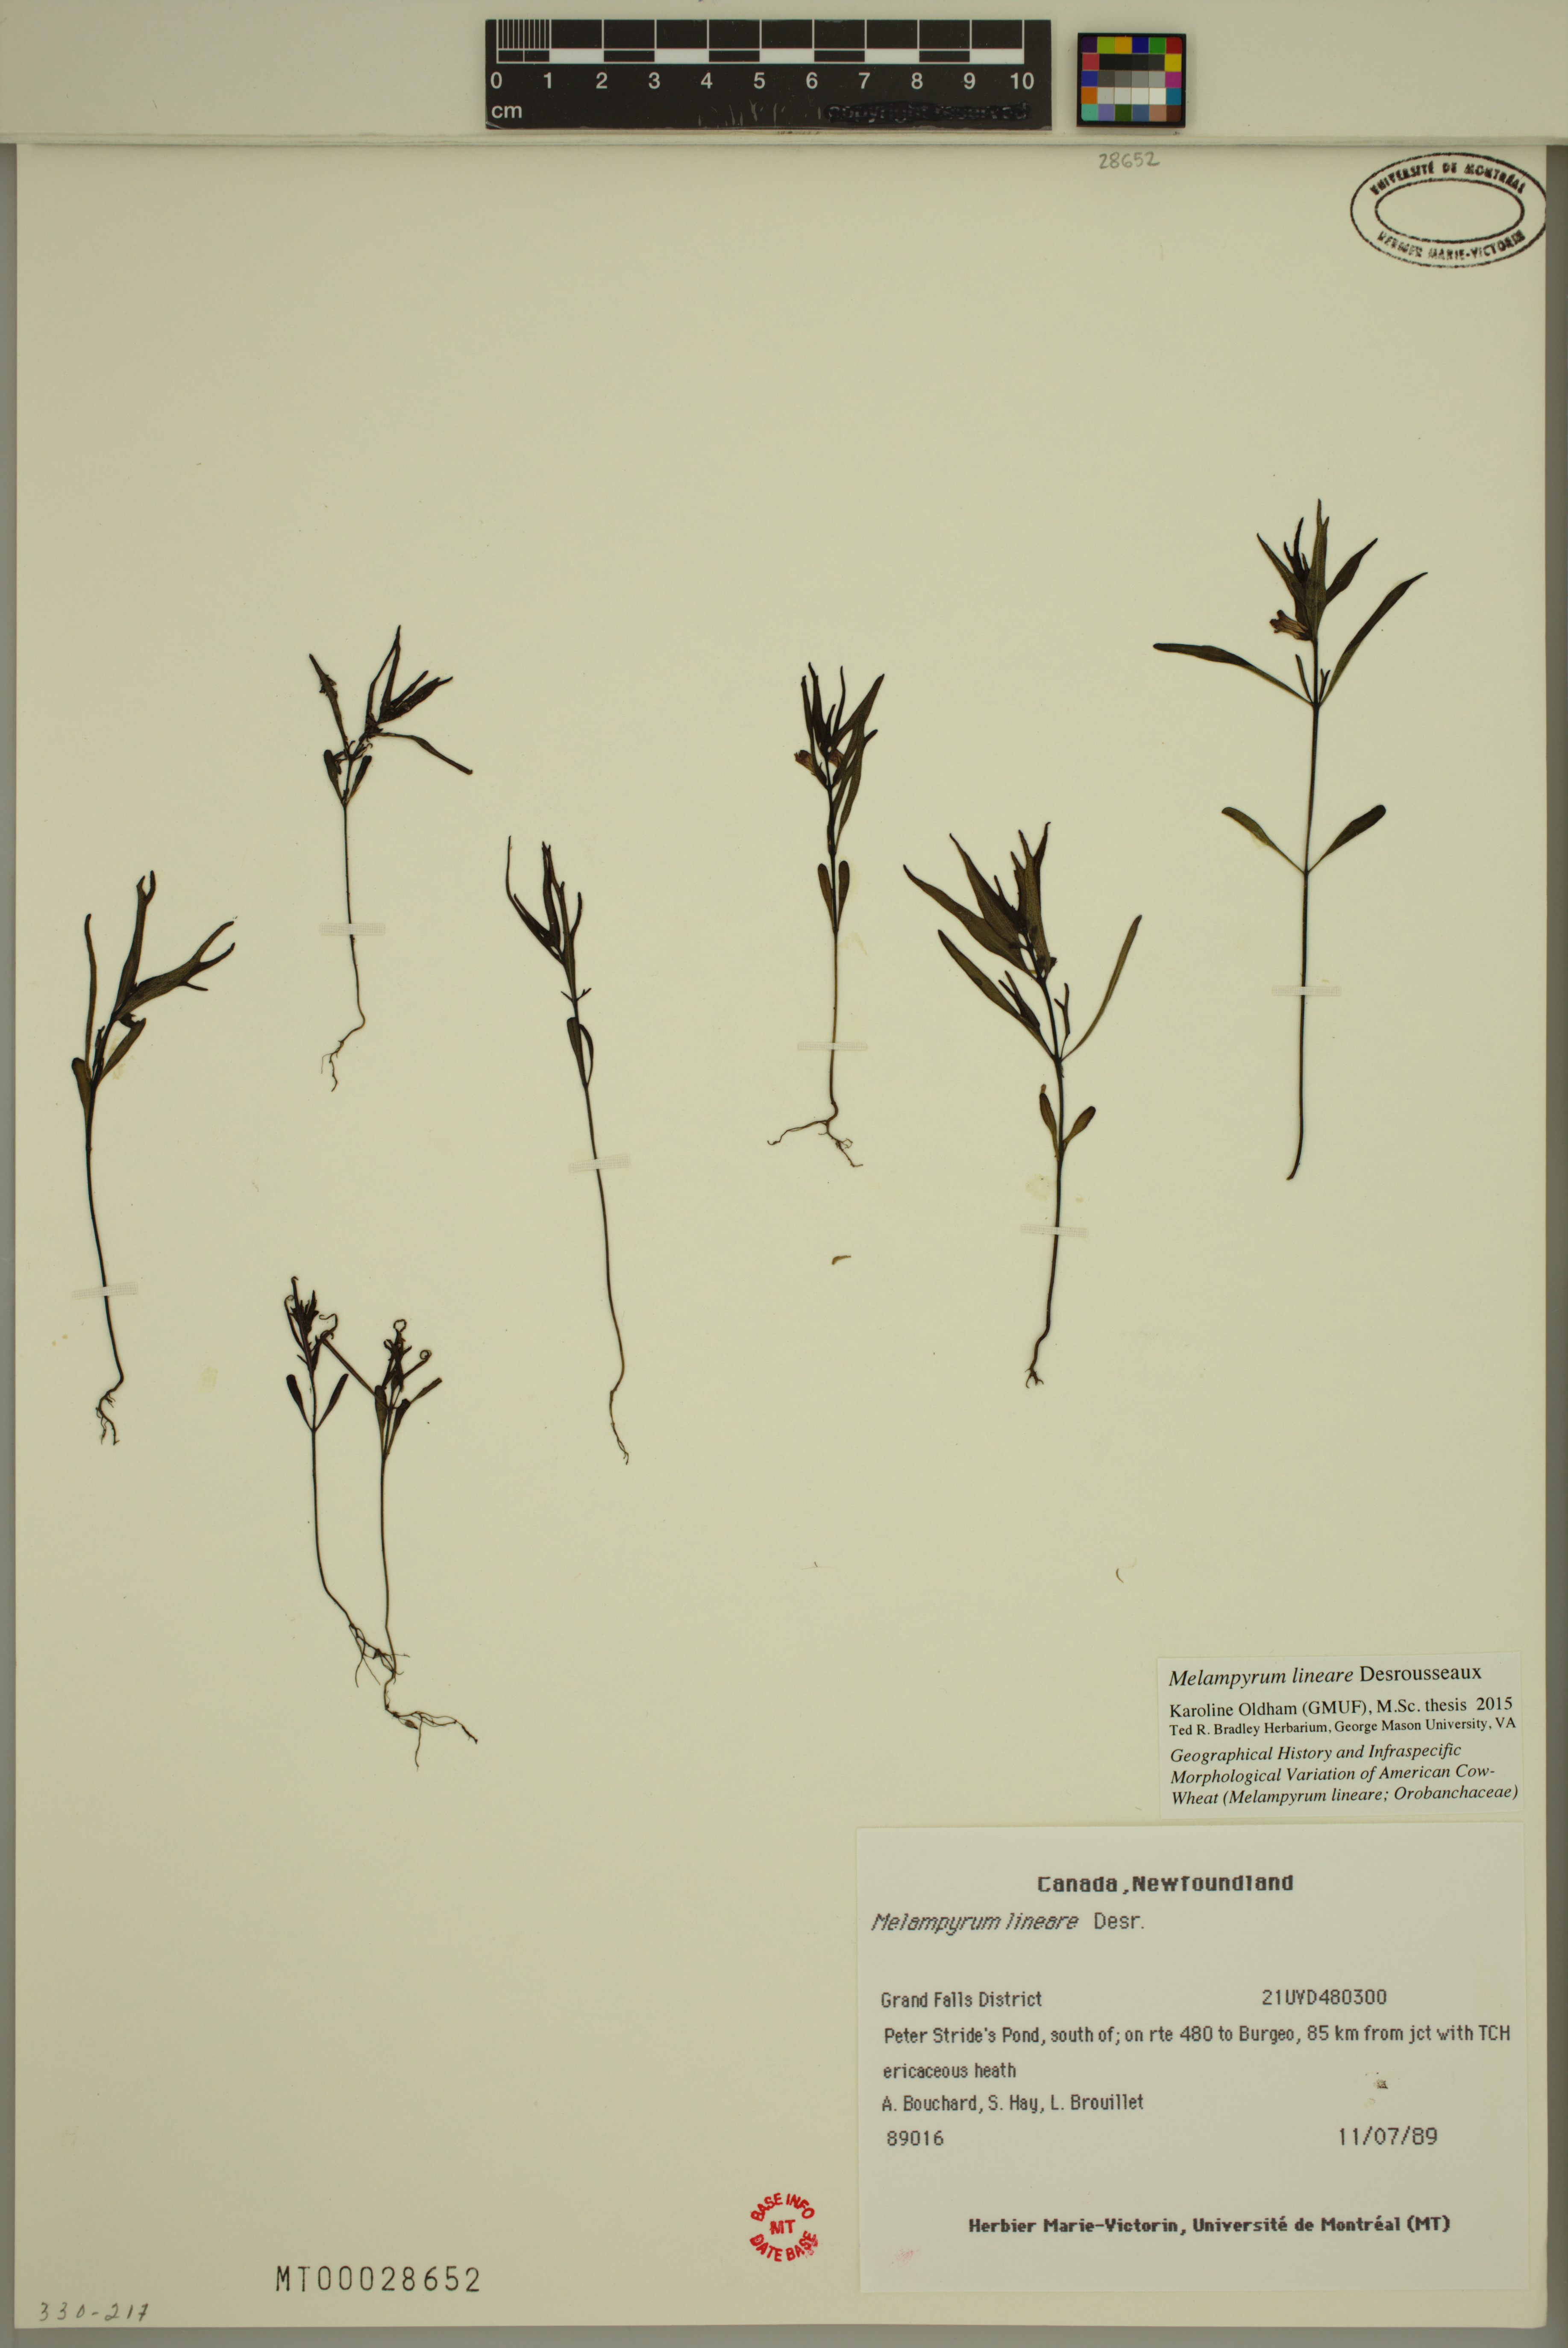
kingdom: Plantae
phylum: Tracheophyta
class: Magnoliopsida
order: Lamiales
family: Orobanchaceae
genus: Melampyrum
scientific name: Melampyrum lineare
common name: American cow-wheat
